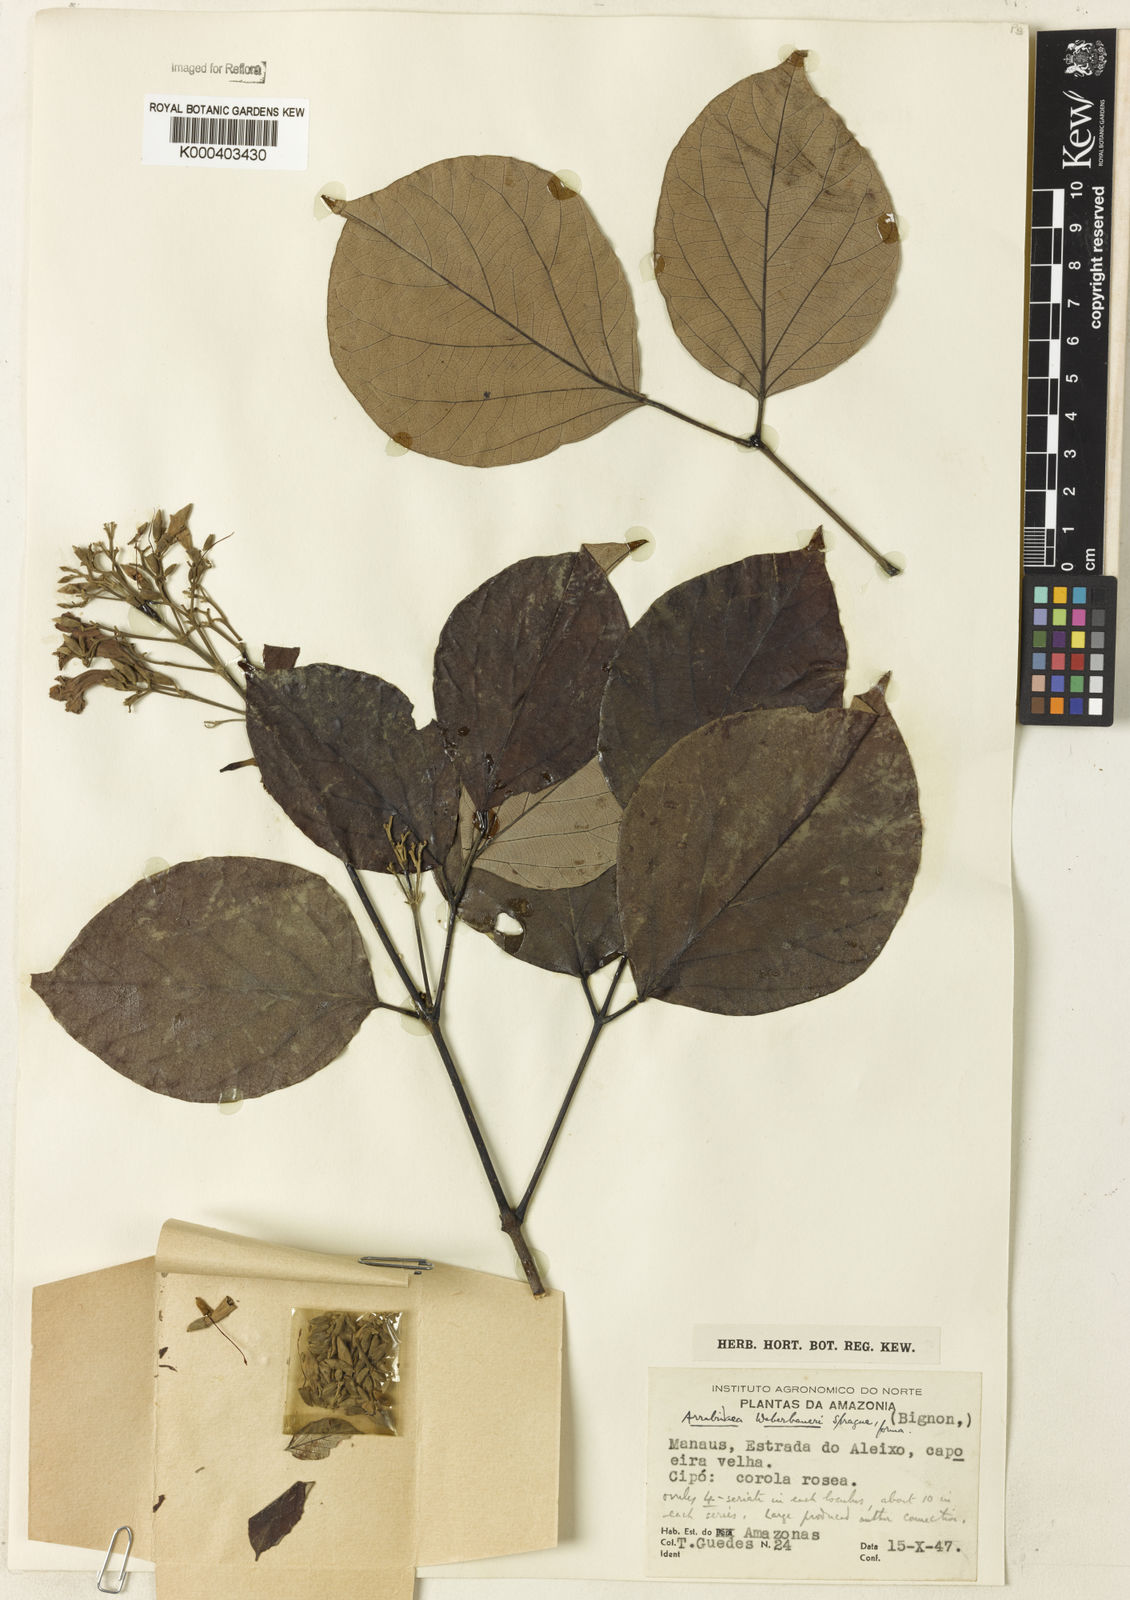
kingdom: Plantae
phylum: Tracheophyta
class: Magnoliopsida
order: Lamiales
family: Bignoniaceae
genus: Cuspidaria
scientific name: Cuspidaria weberbaueri
